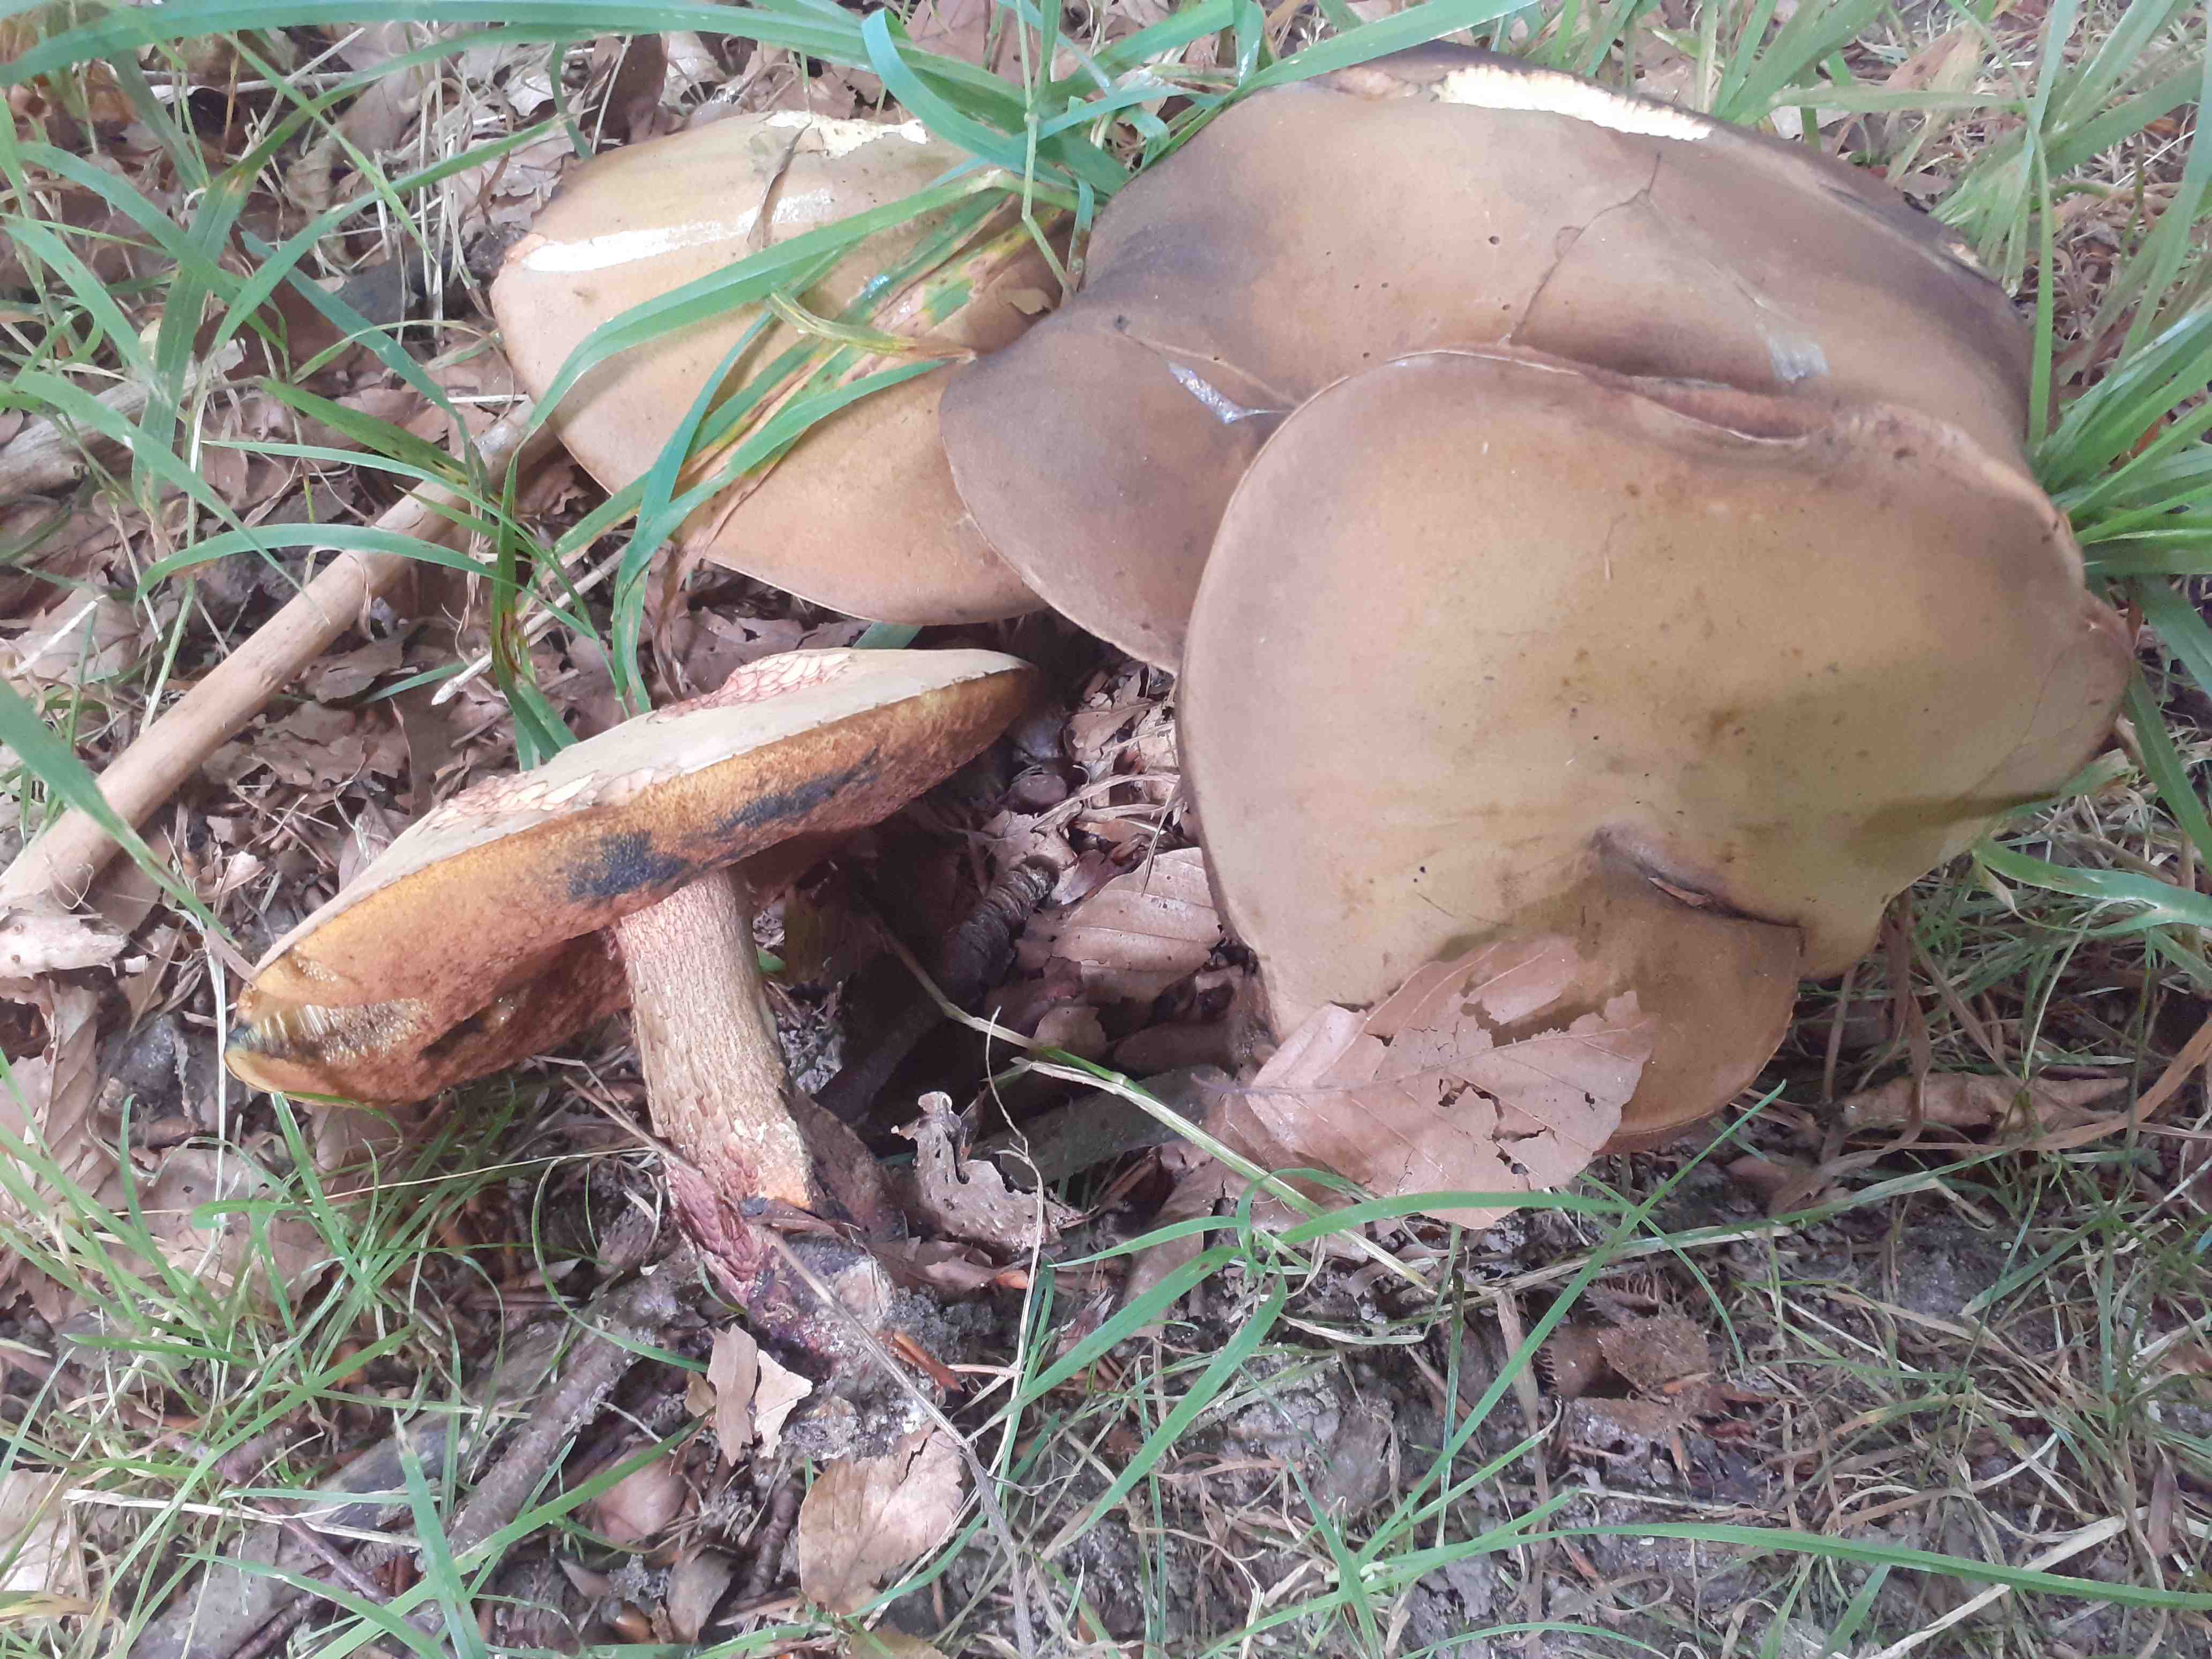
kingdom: Fungi
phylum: Basidiomycota
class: Agaricomycetes
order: Boletales
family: Boletaceae
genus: Suillellus
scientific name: Suillellus luridus
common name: netstokket indigorørhat
